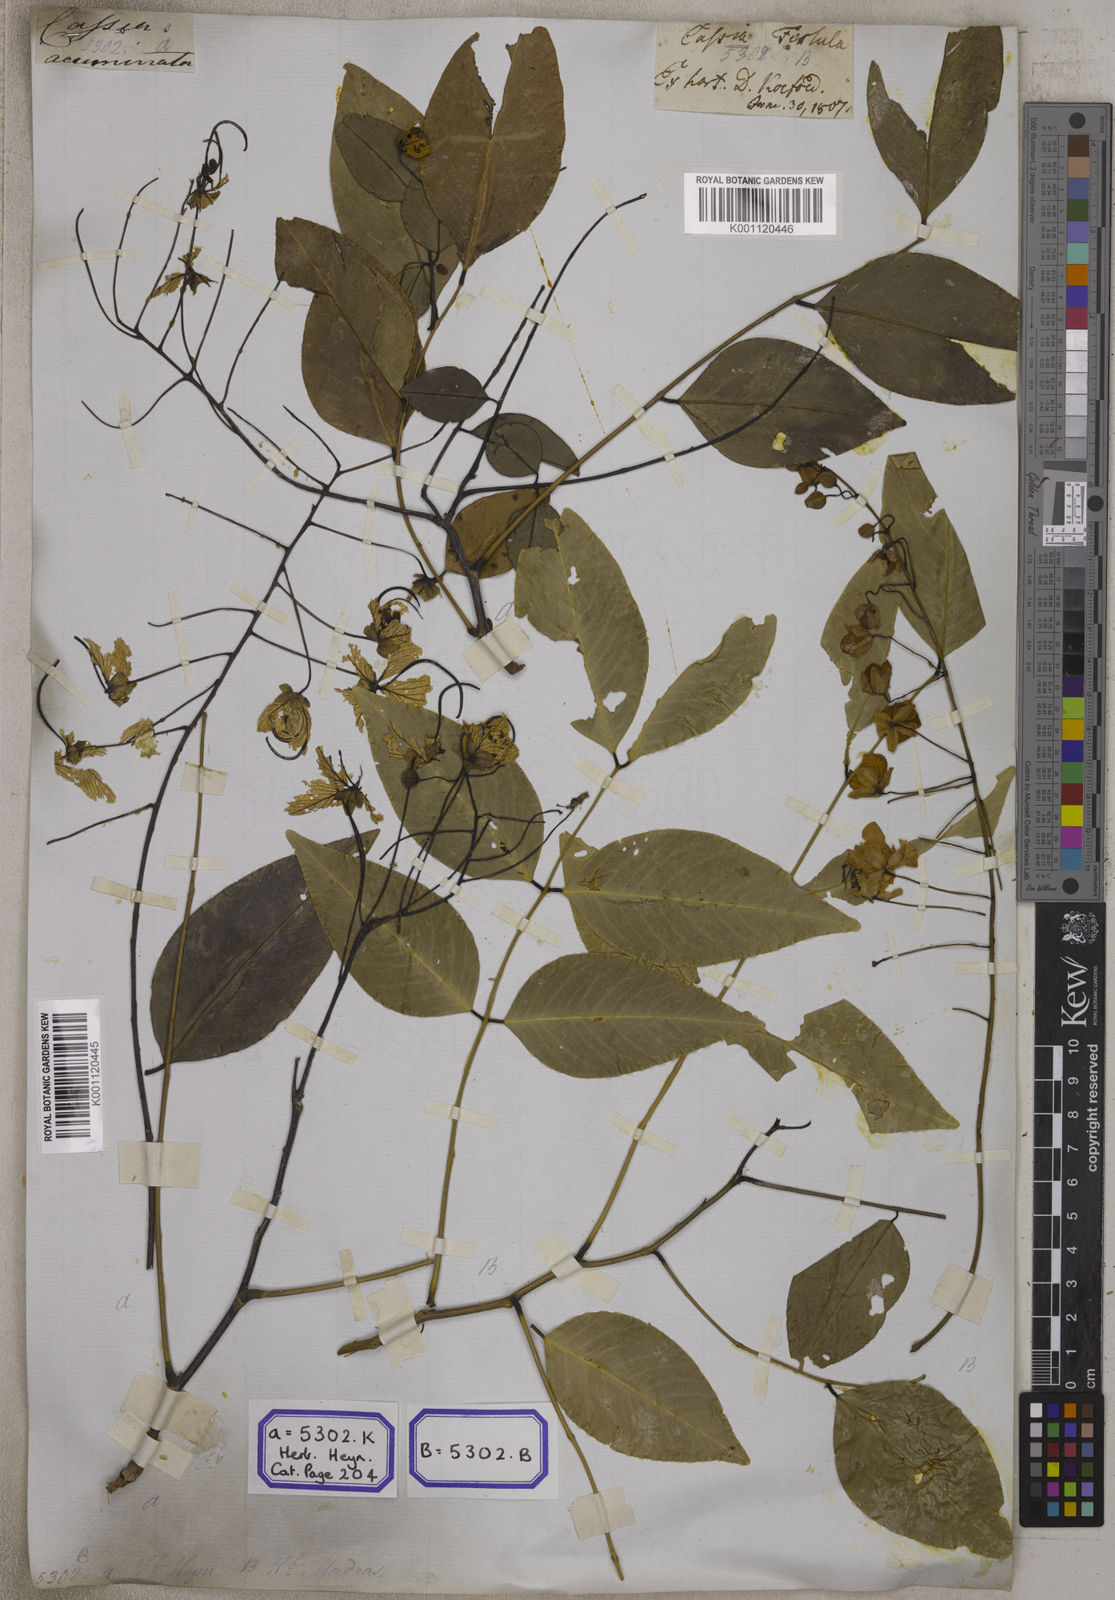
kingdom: Plantae
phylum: Tracheophyta
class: Magnoliopsida
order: Fabales
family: Fabaceae
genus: Cassia
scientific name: Cassia fistula
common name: Golden shower
